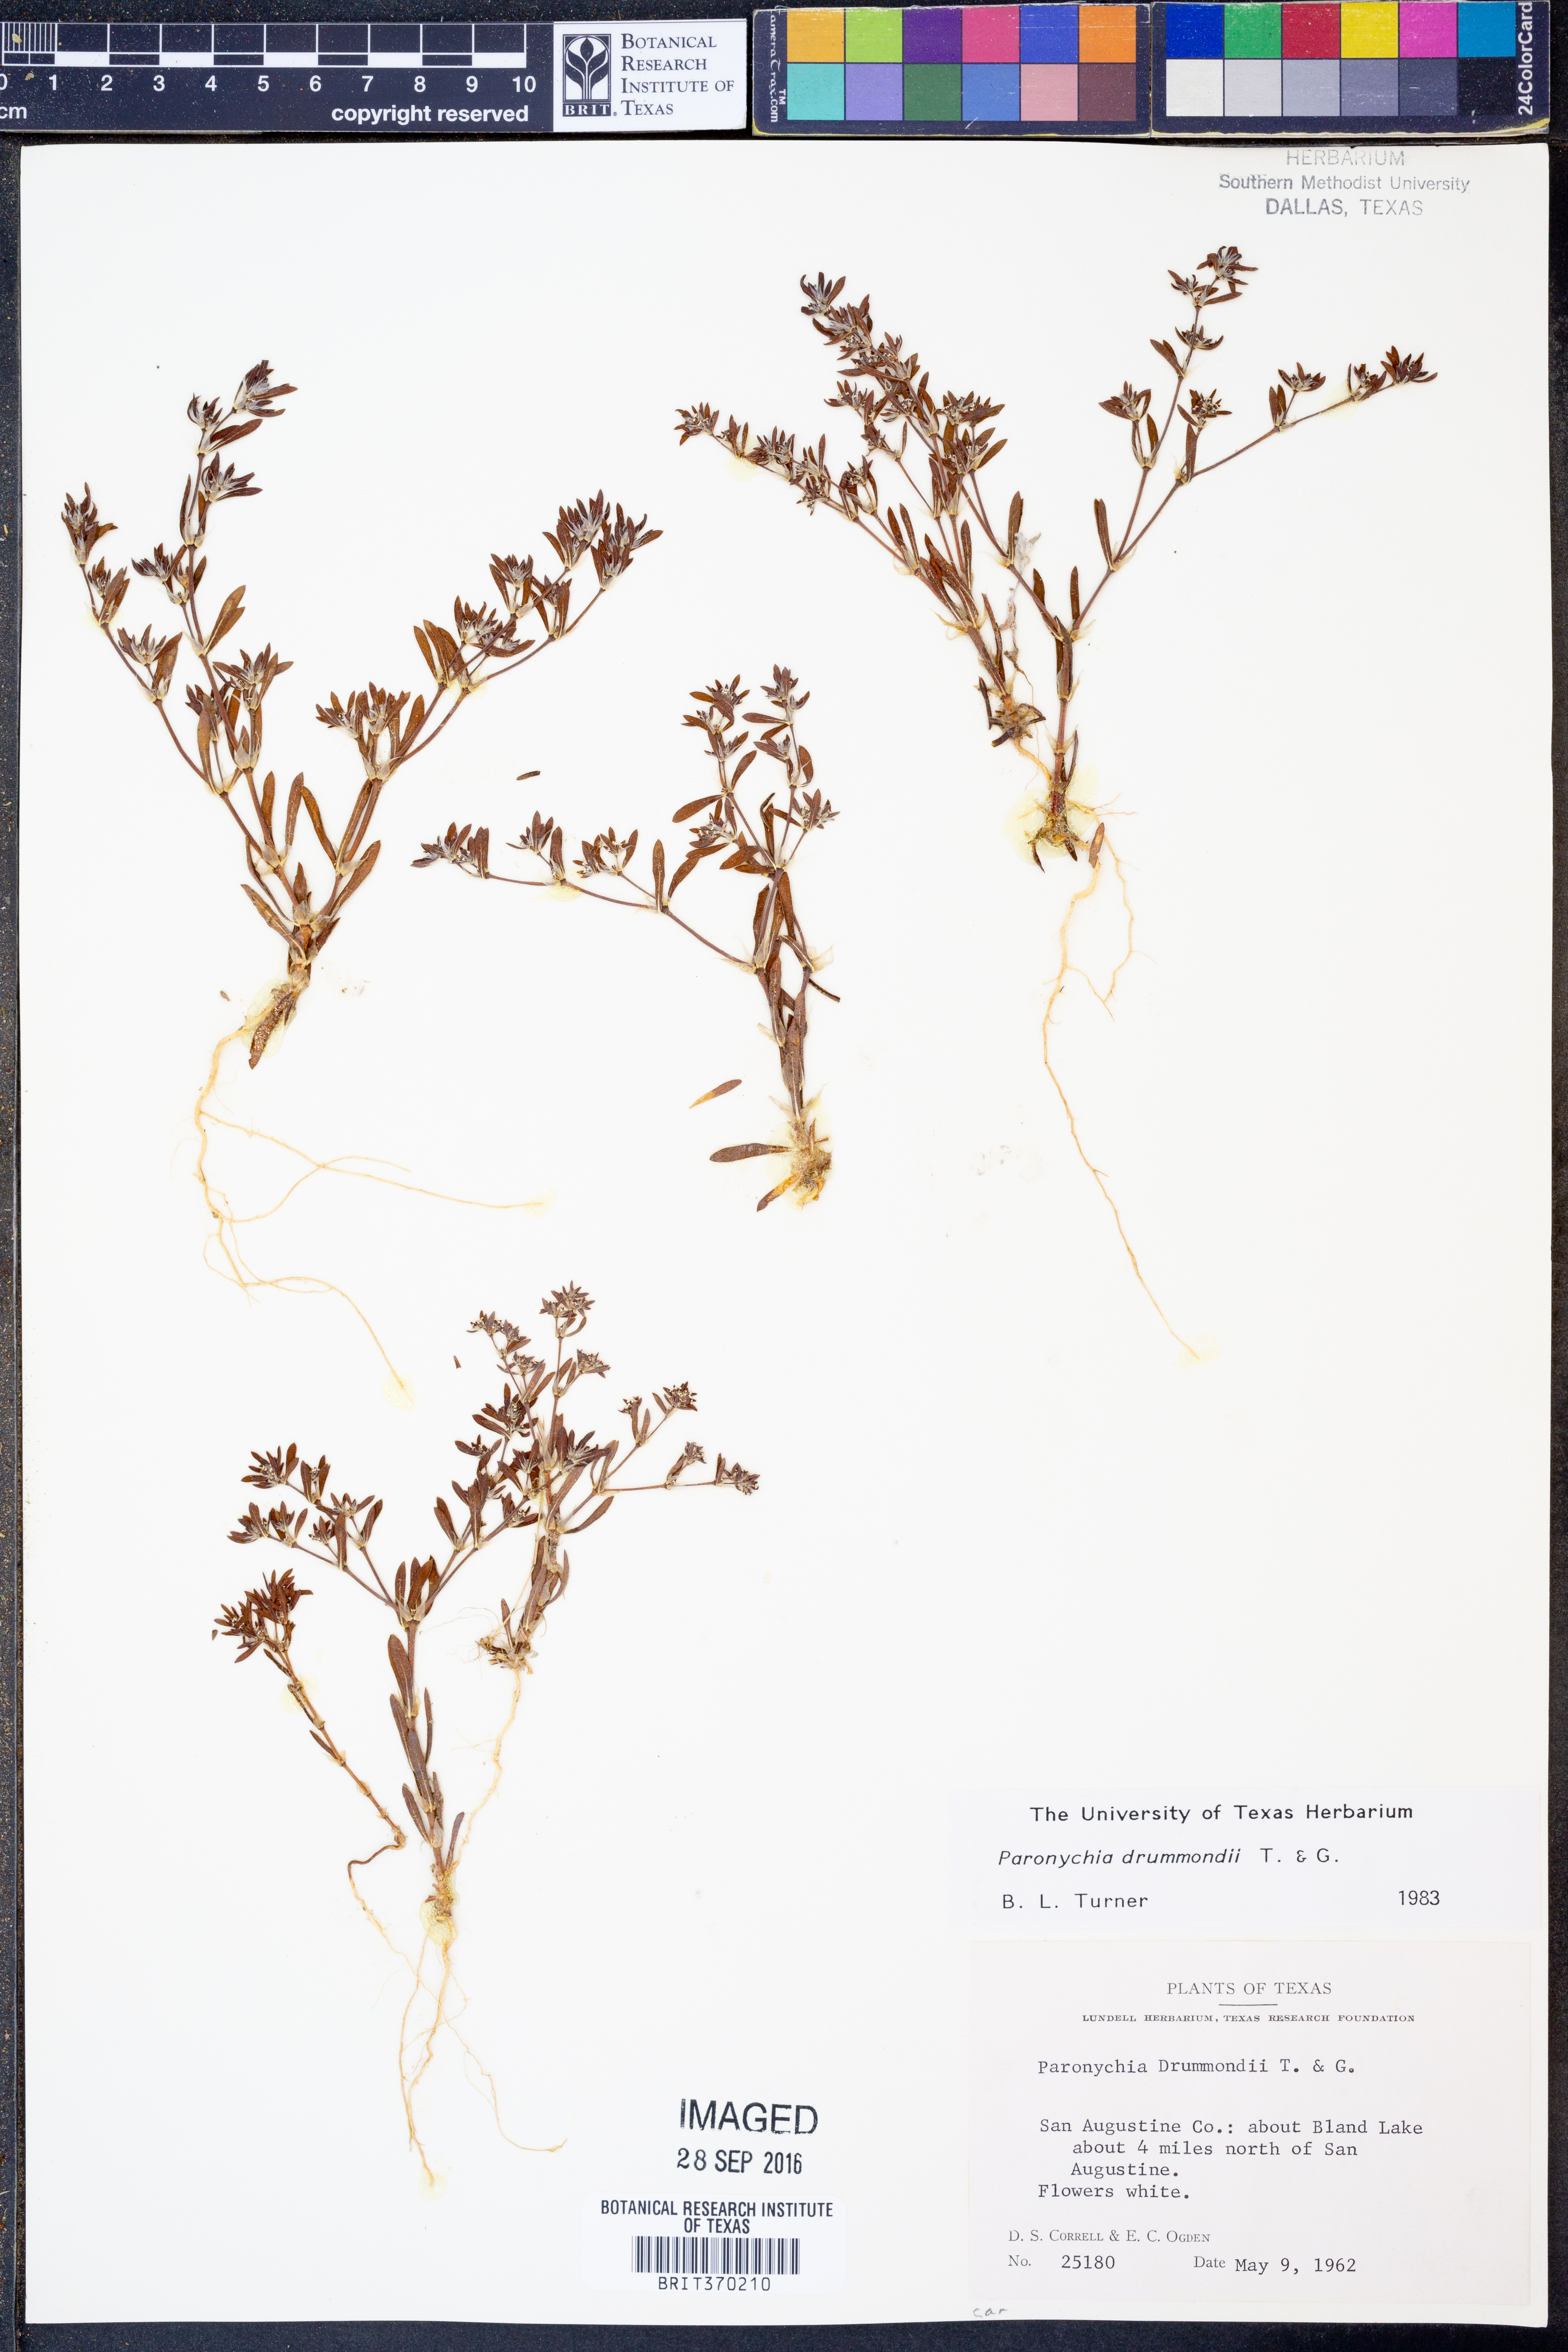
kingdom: Plantae
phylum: Tracheophyta
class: Magnoliopsida
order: Caryophyllales
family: Caryophyllaceae
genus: Paronychia
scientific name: Paronychia drummondii
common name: Drummond's nailwort
